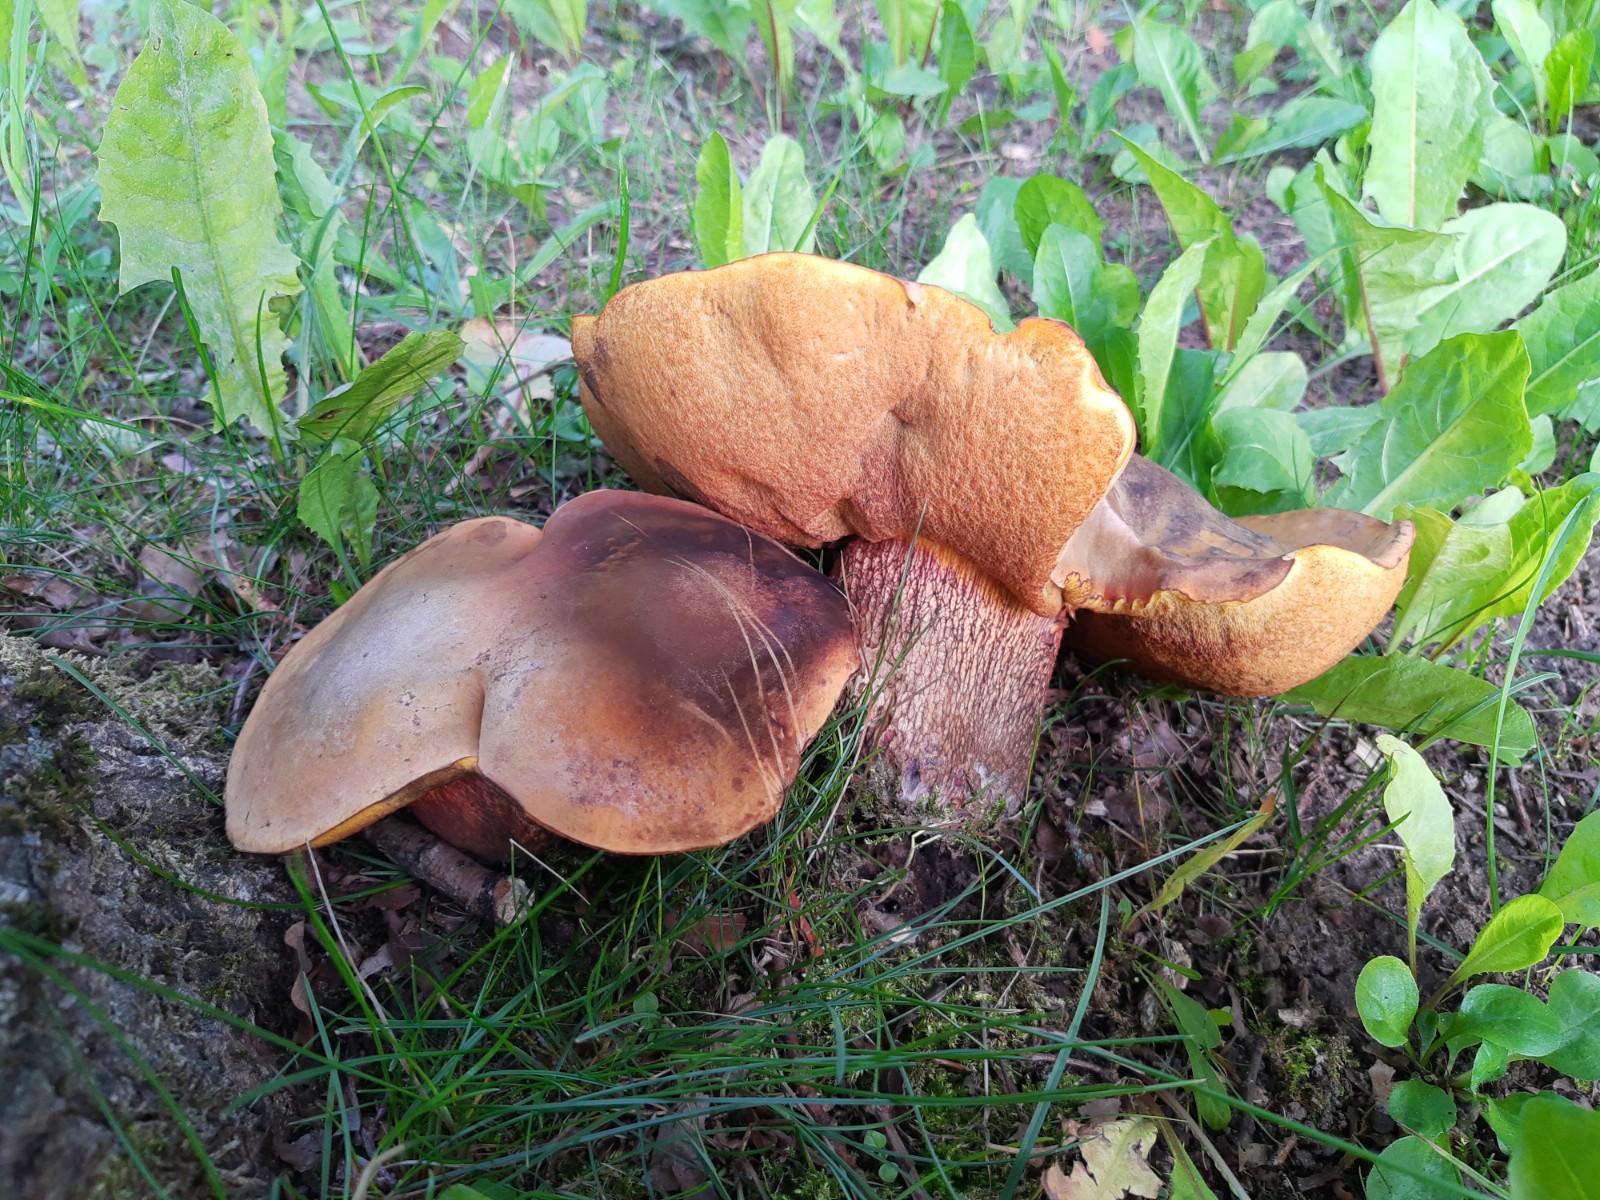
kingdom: Fungi
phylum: Basidiomycota
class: Agaricomycetes
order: Boletales
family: Boletaceae
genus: Suillellus
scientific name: Suillellus luridus
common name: netstokket indigorørhat
